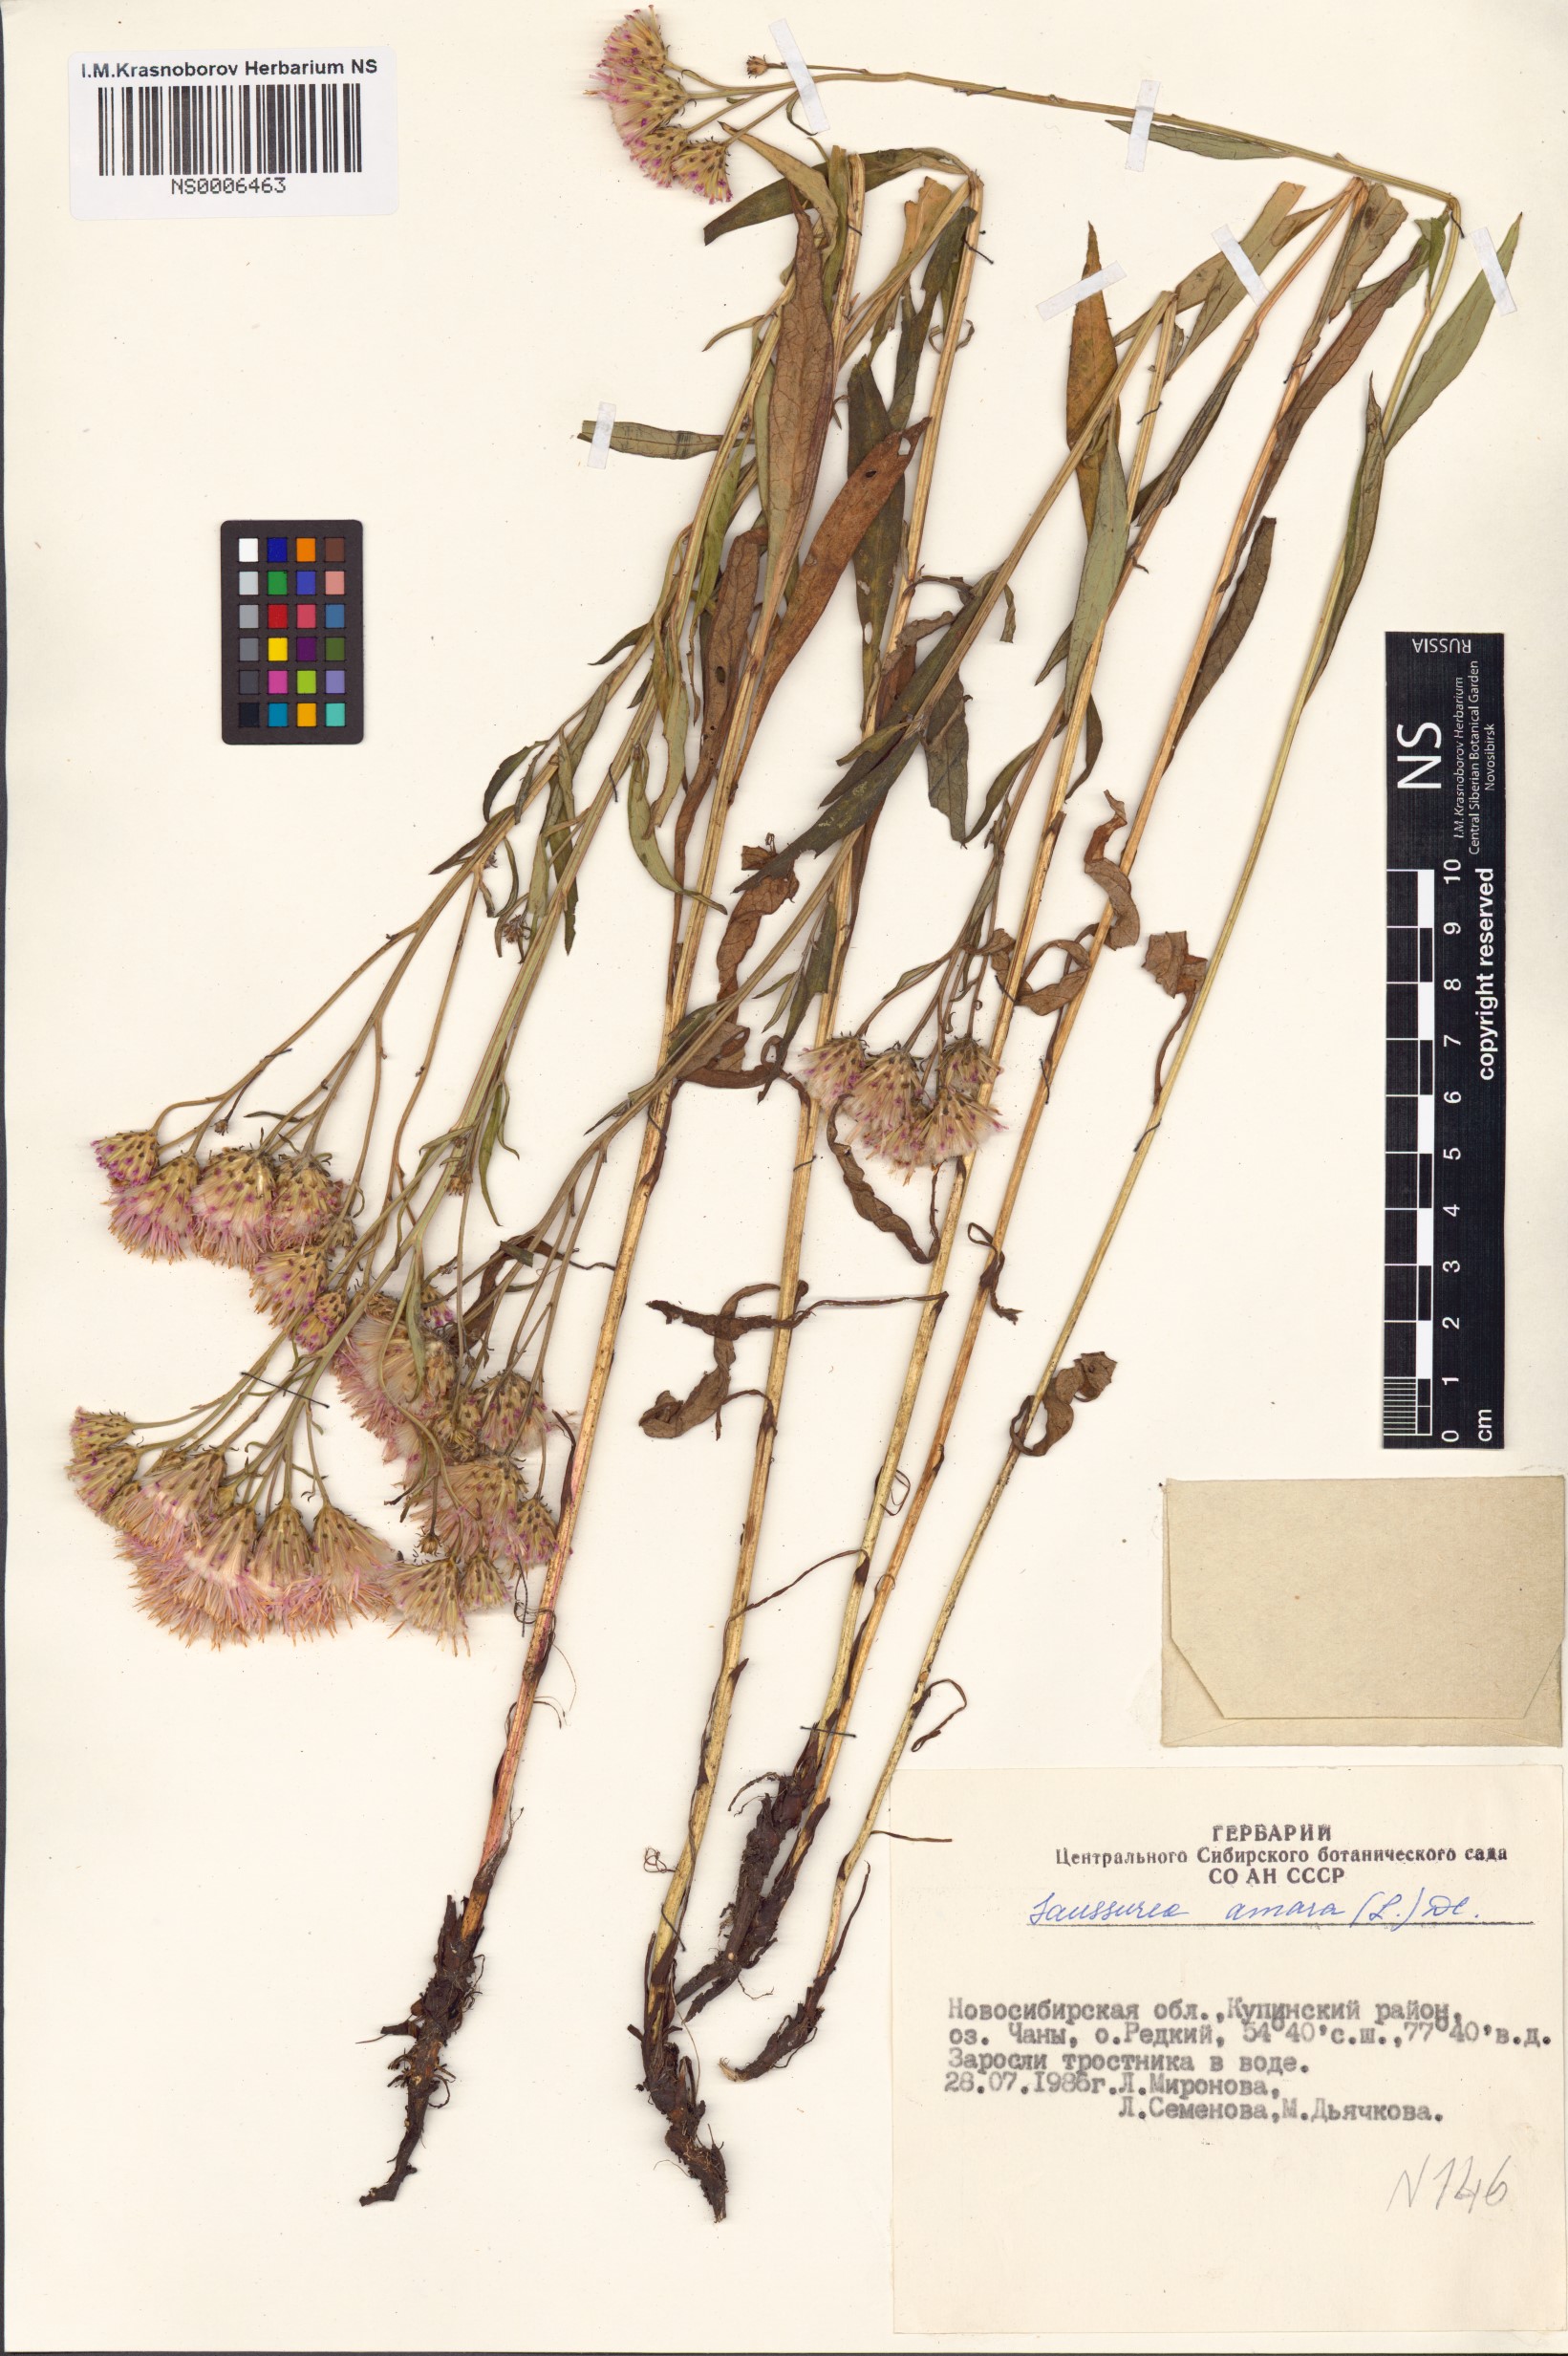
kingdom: Plantae
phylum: Tracheophyta
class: Magnoliopsida
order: Asterales
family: Asteraceae
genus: Saussurea
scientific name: Saussurea amara
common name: Alberta sawwort
